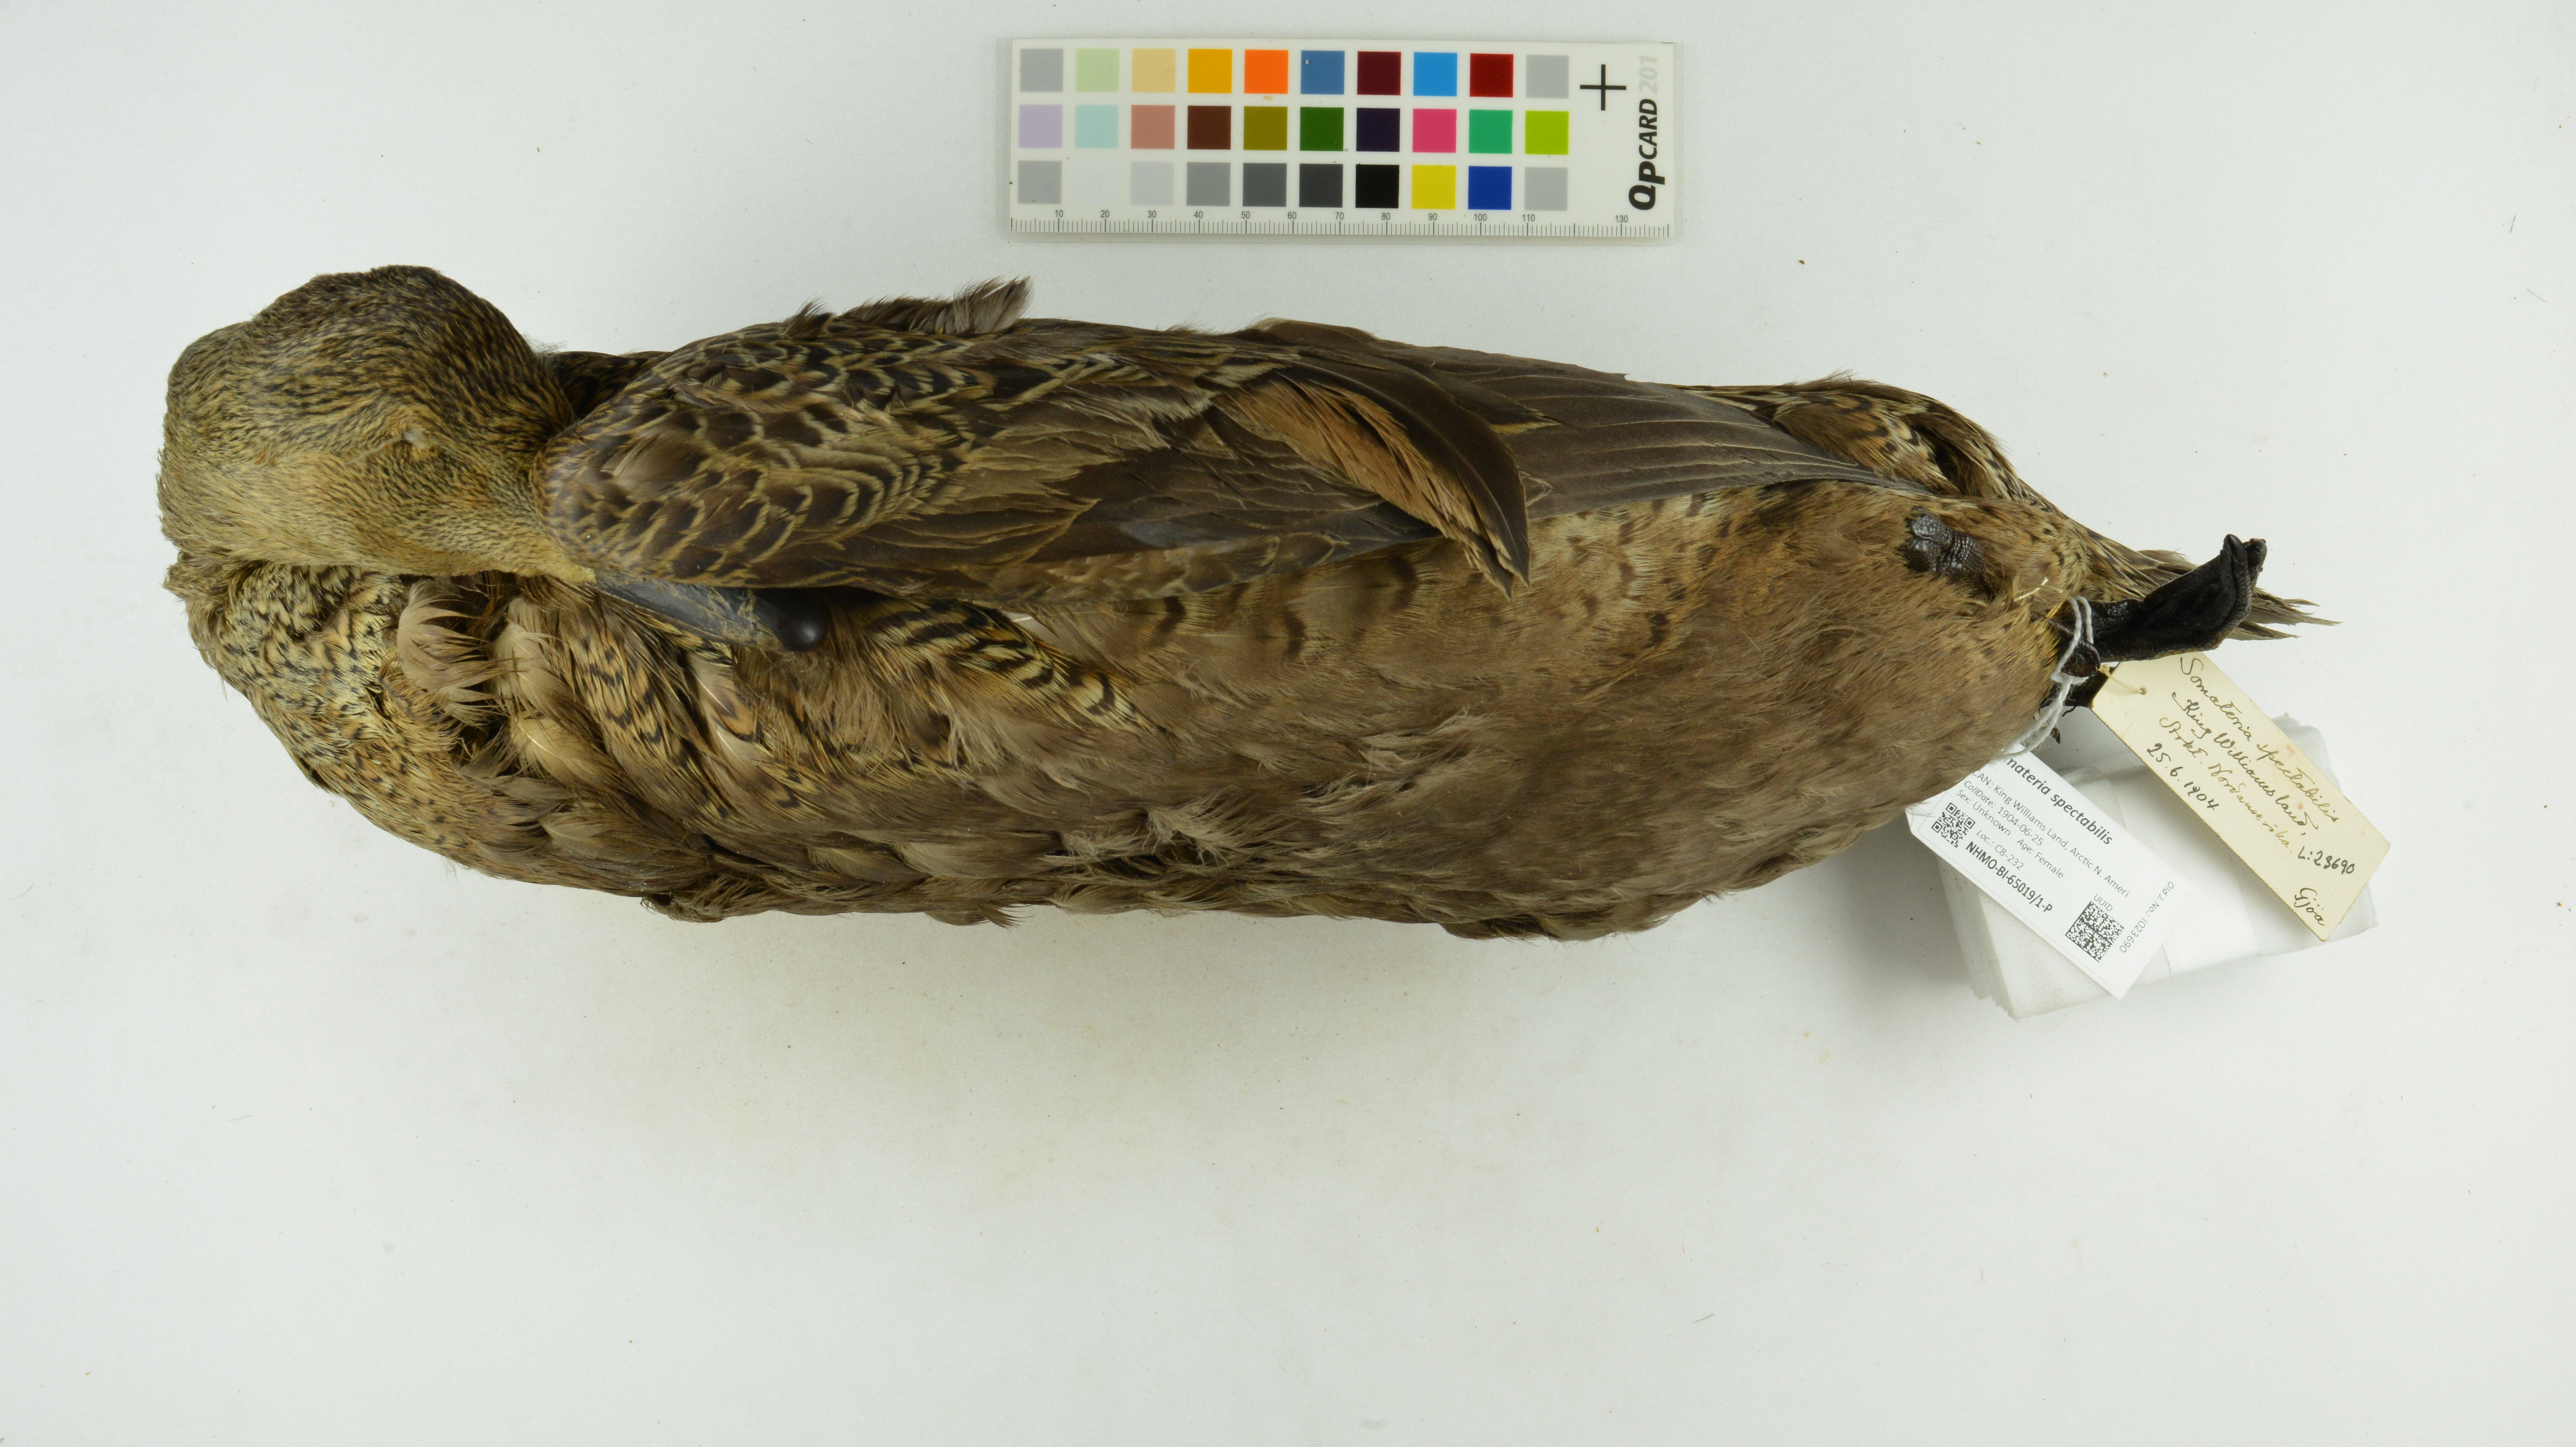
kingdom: Animalia
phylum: Chordata
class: Aves
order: Anseriformes
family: Anatidae
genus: Somateria
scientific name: Somateria spectabilis
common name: King eider
